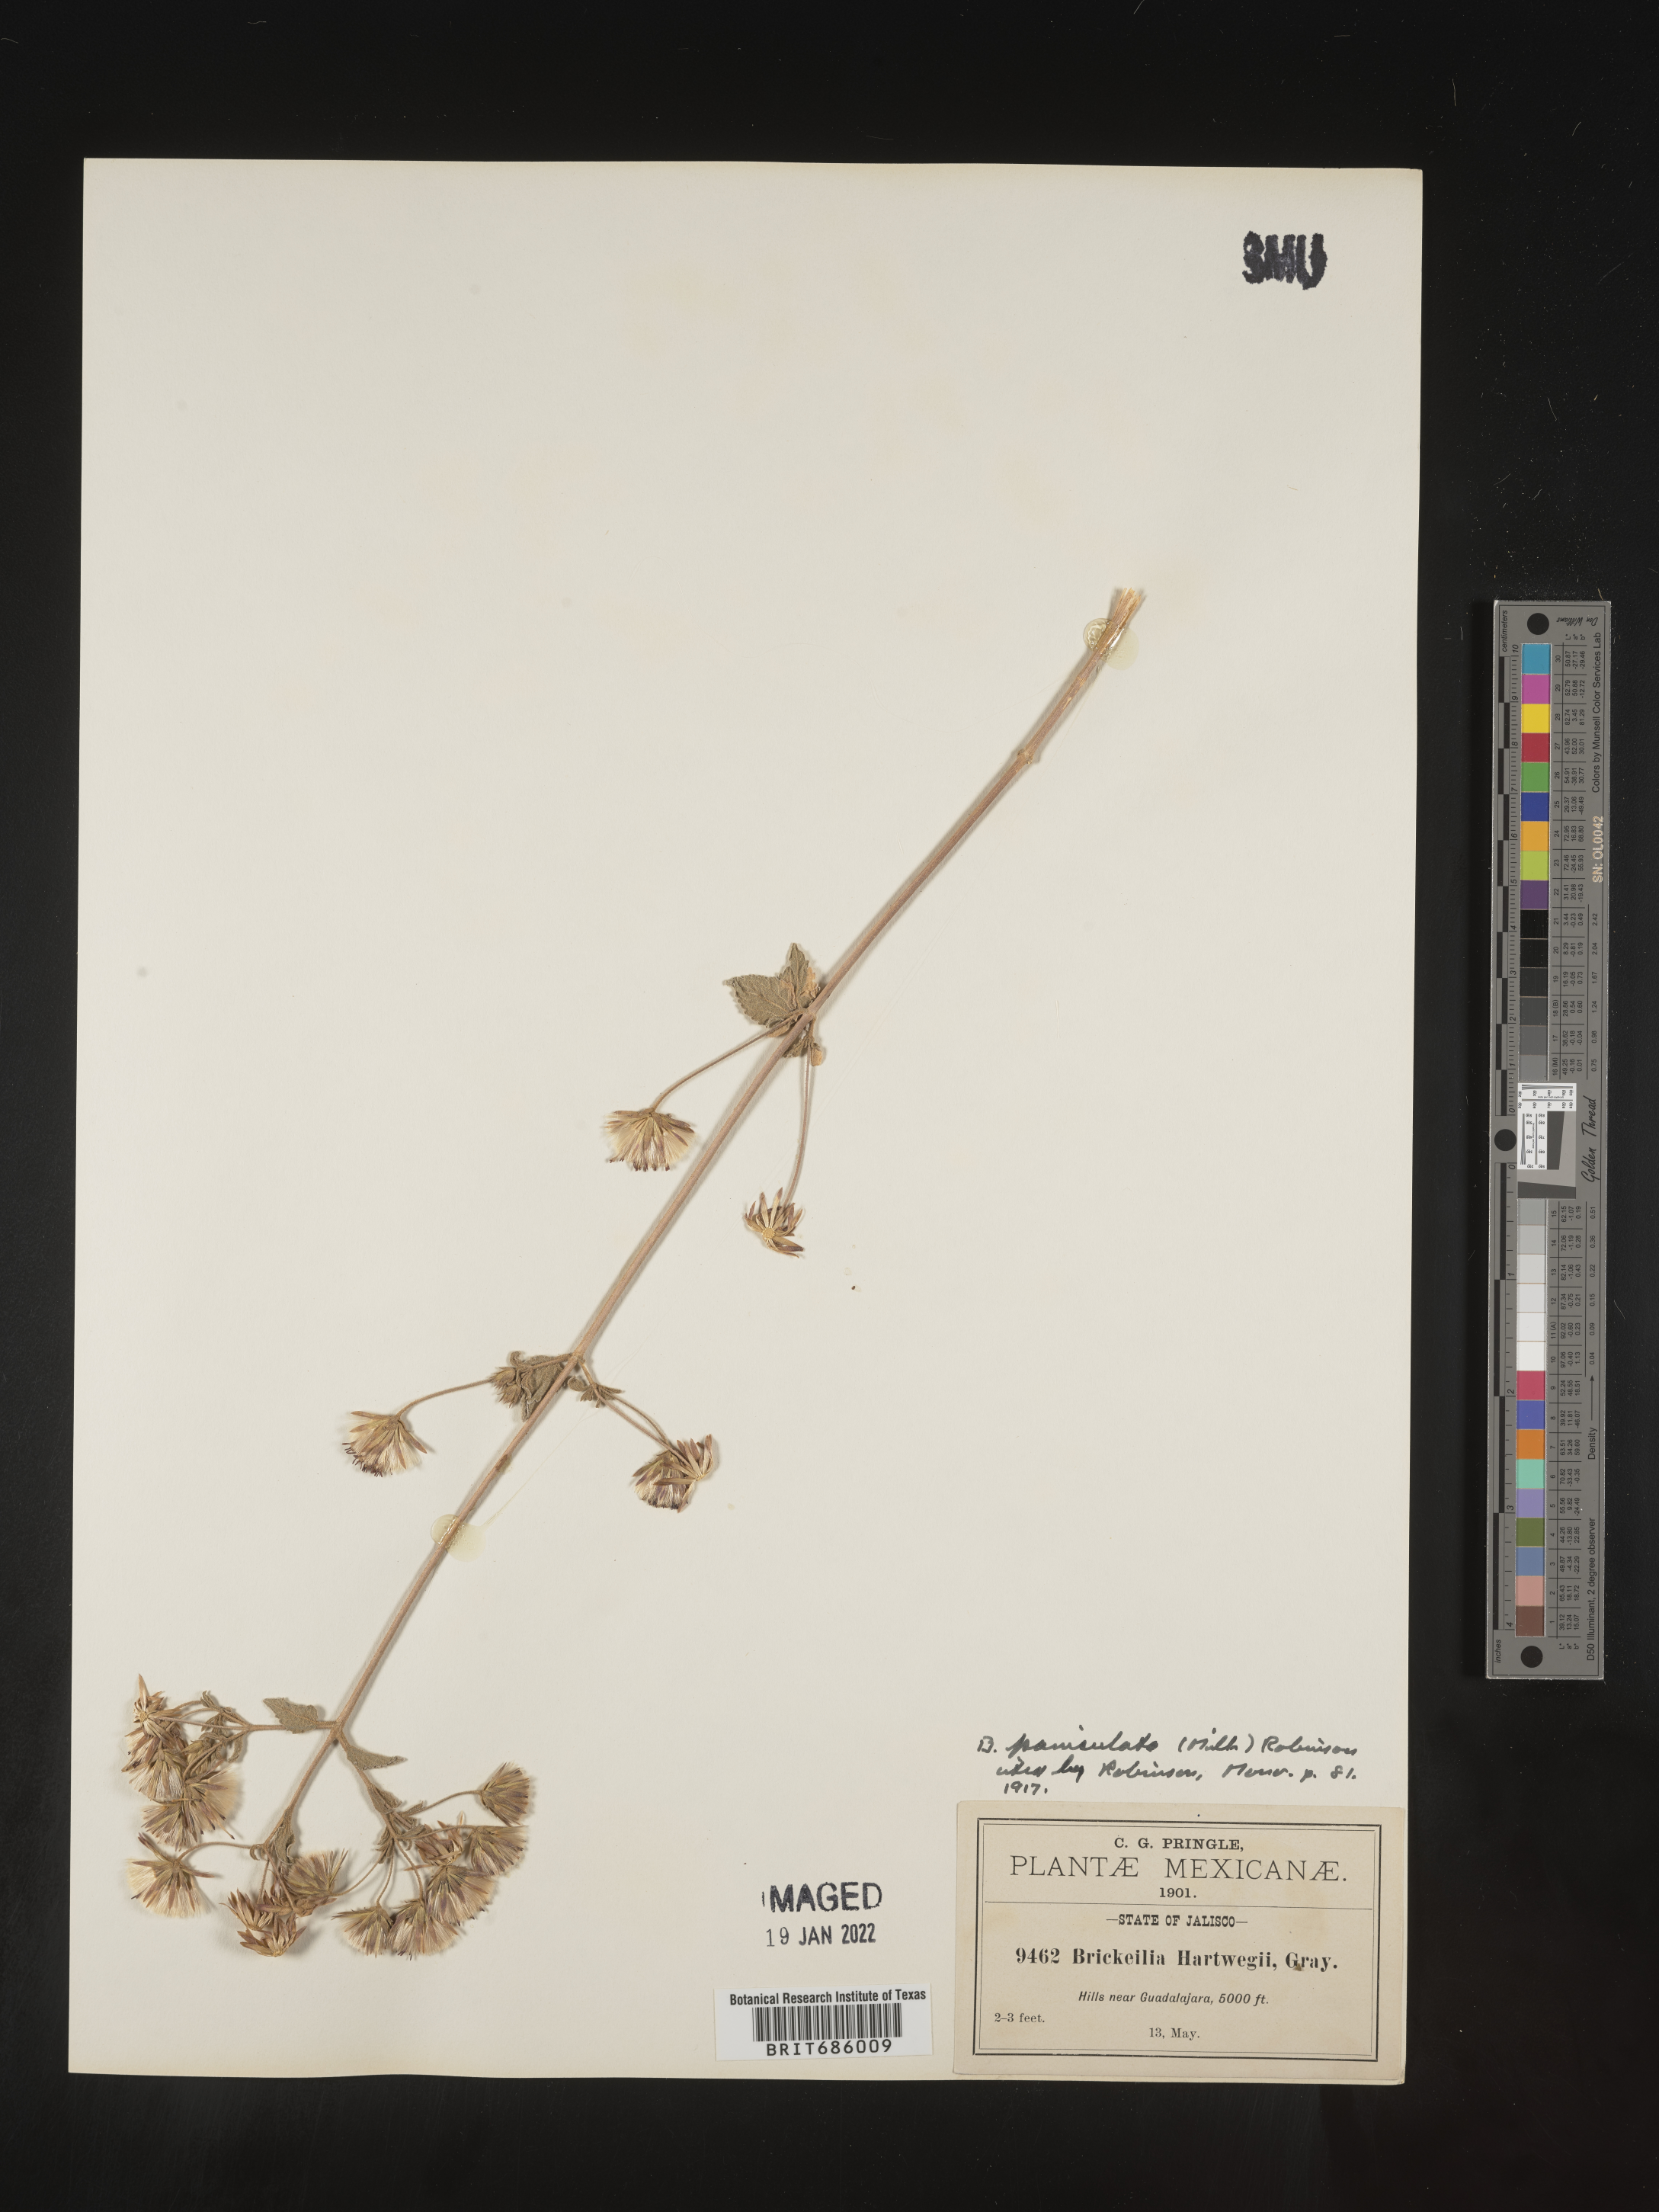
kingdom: Plantae
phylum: Tracheophyta
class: Magnoliopsida
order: Asterales
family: Asteraceae
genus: Brickellia
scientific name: Brickellia
